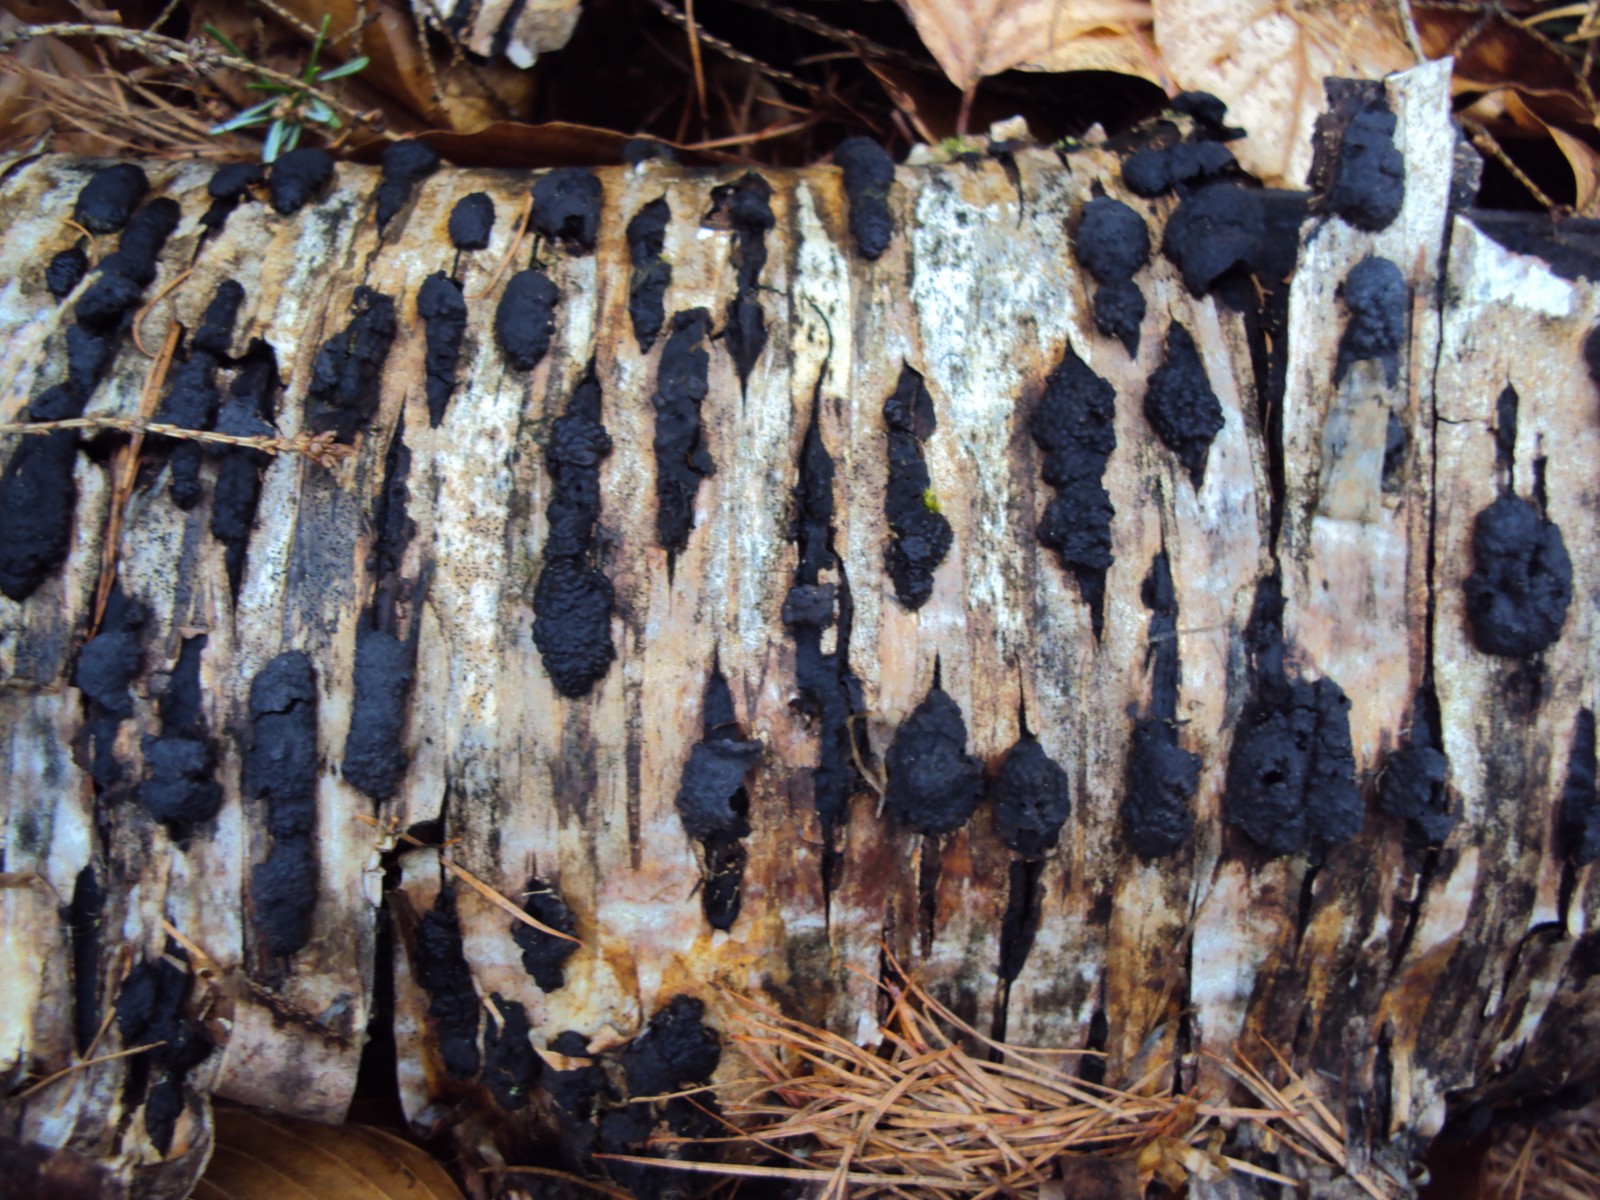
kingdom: Fungi
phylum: Ascomycota
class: Sordariomycetes
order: Xylariales
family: Hypoxylaceae
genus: Jackrogersella
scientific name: Jackrogersella multiformis
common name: foranderlig kulbær
